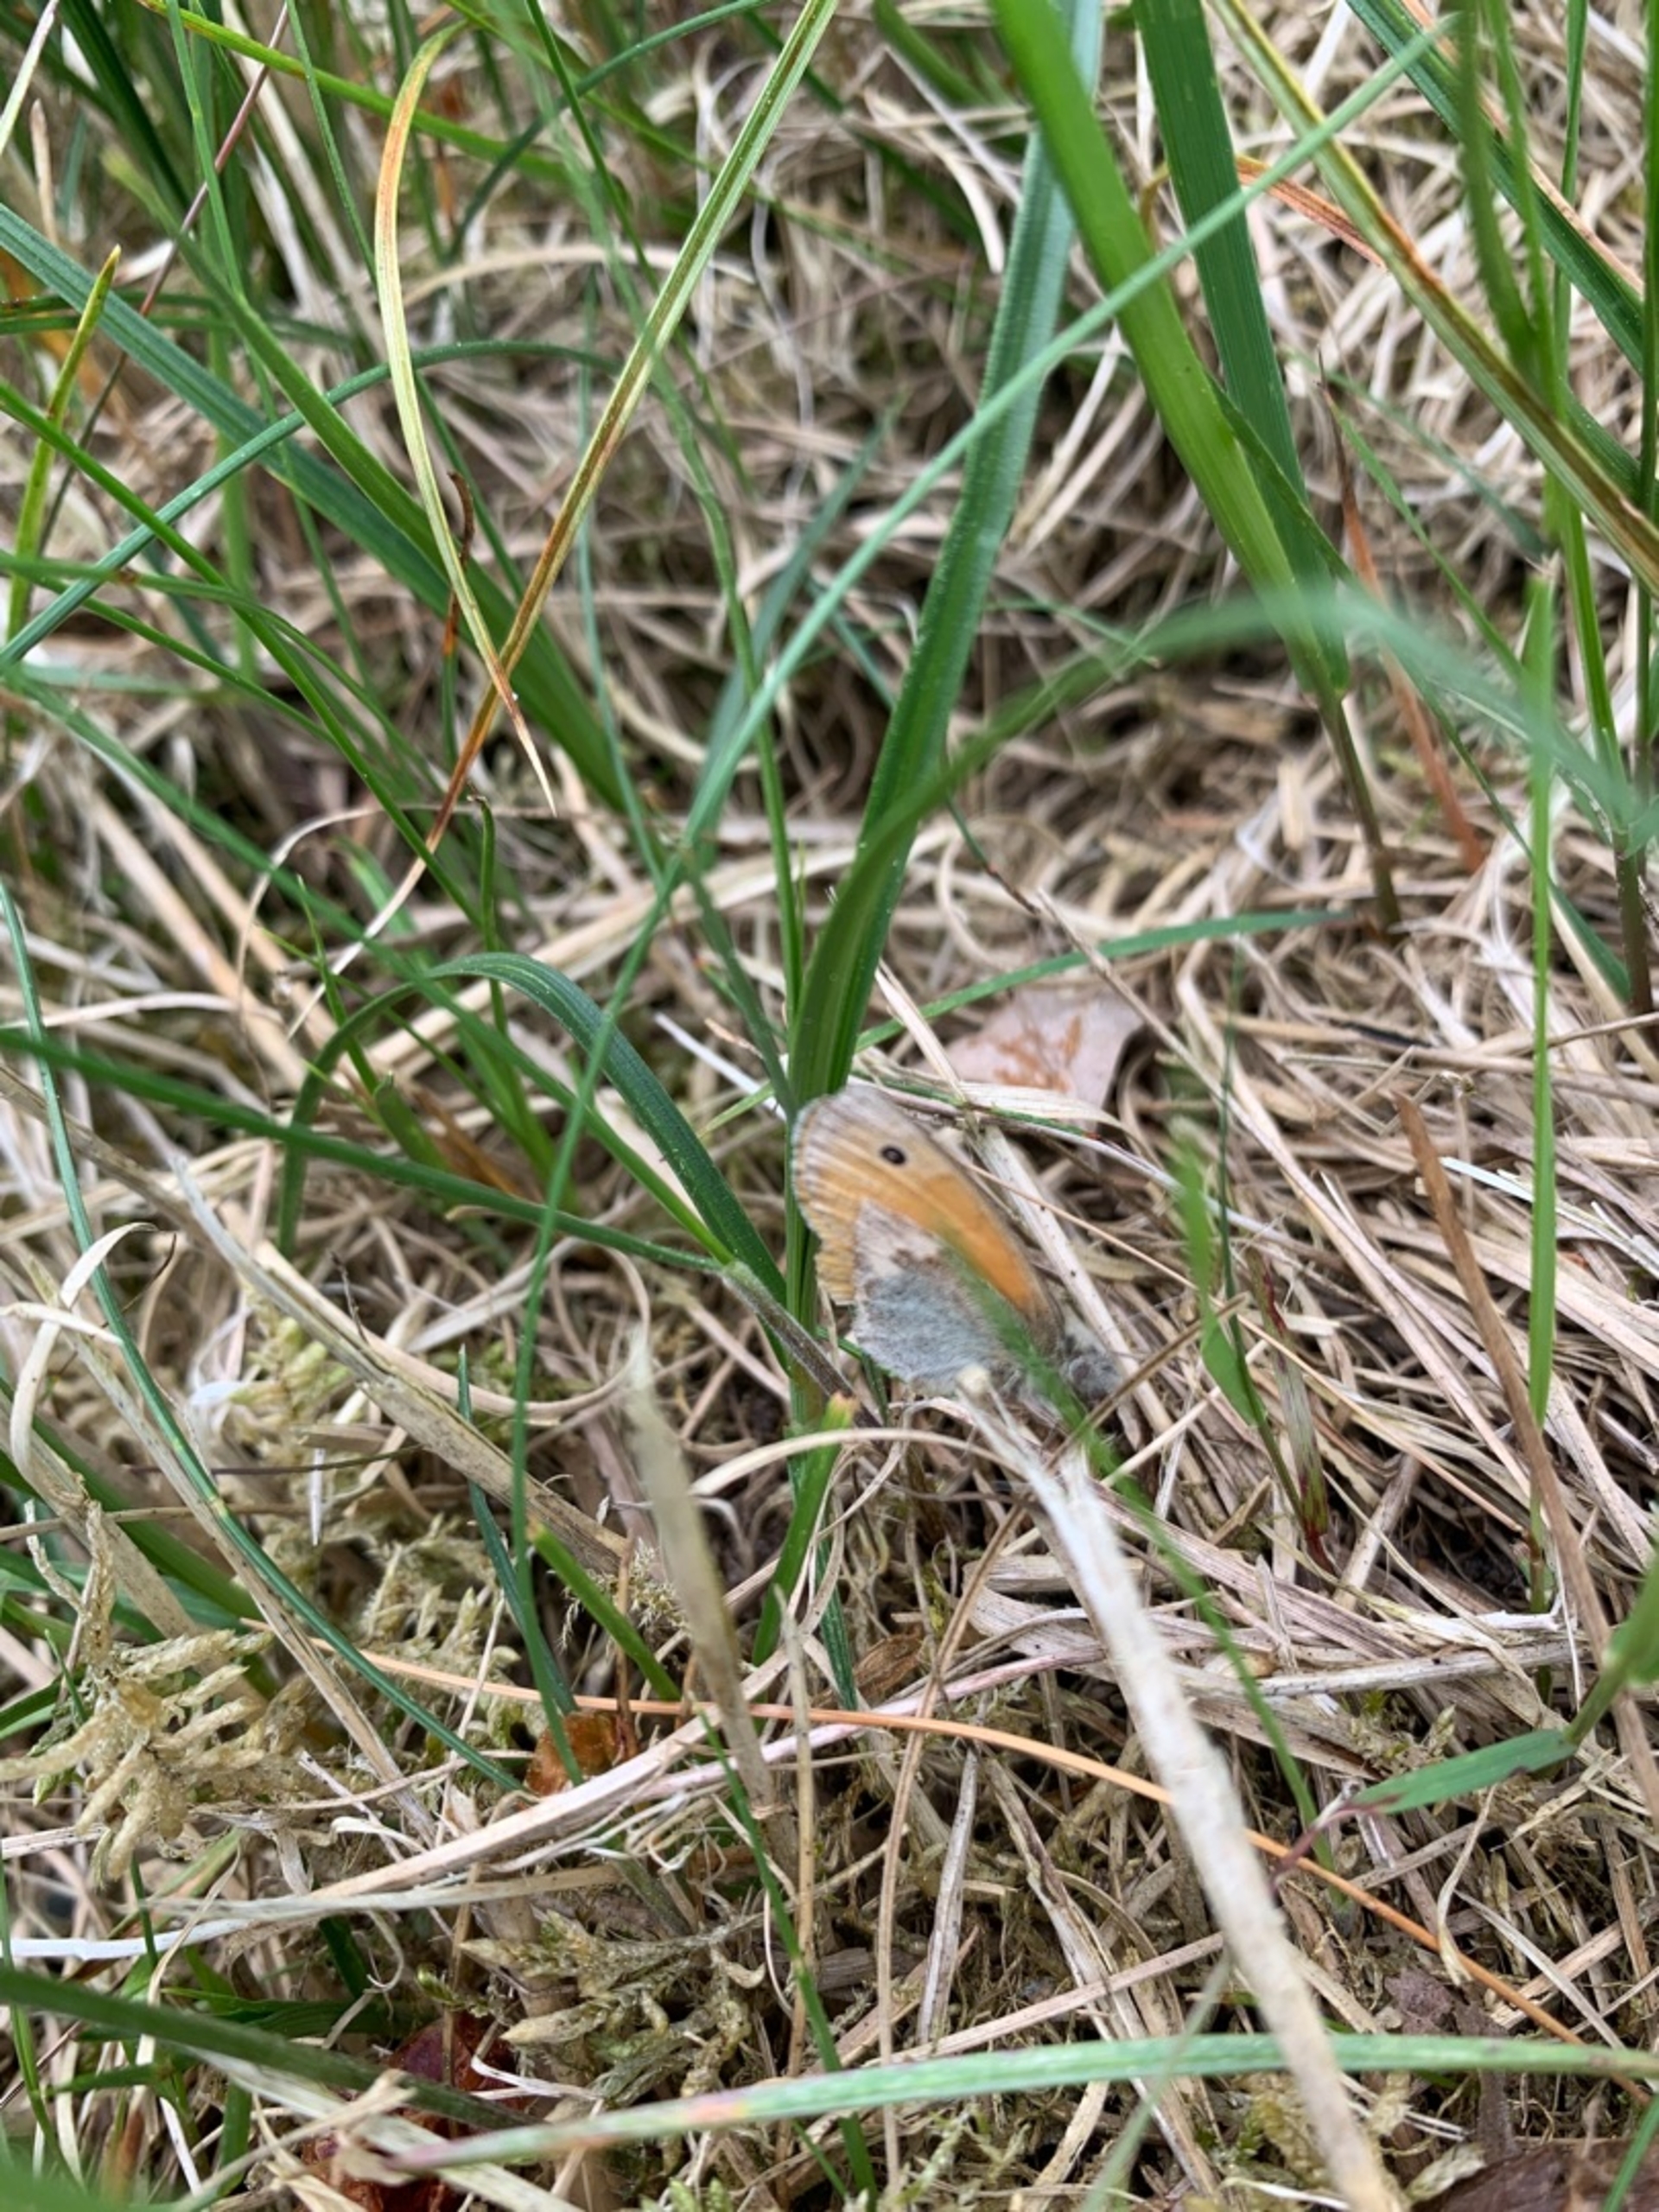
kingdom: Animalia
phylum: Arthropoda
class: Insecta
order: Lepidoptera
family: Nymphalidae
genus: Coenonympha
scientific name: Coenonympha pamphilus
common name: Okkergul randøje
